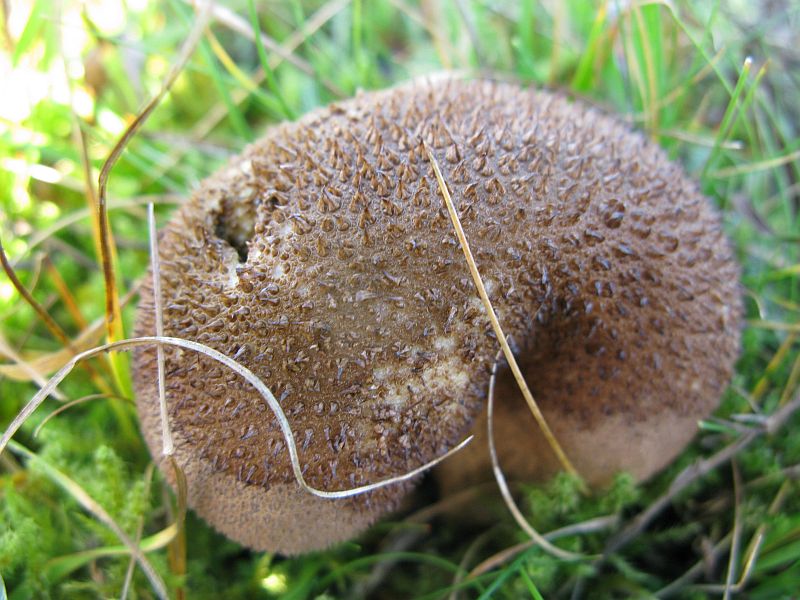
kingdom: Fungi
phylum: Basidiomycota
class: Agaricomycetes
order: Agaricales
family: Lycoperdaceae
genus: Lycoperdon
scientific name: Lycoperdon nigrescens
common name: sortagtig støvbold
